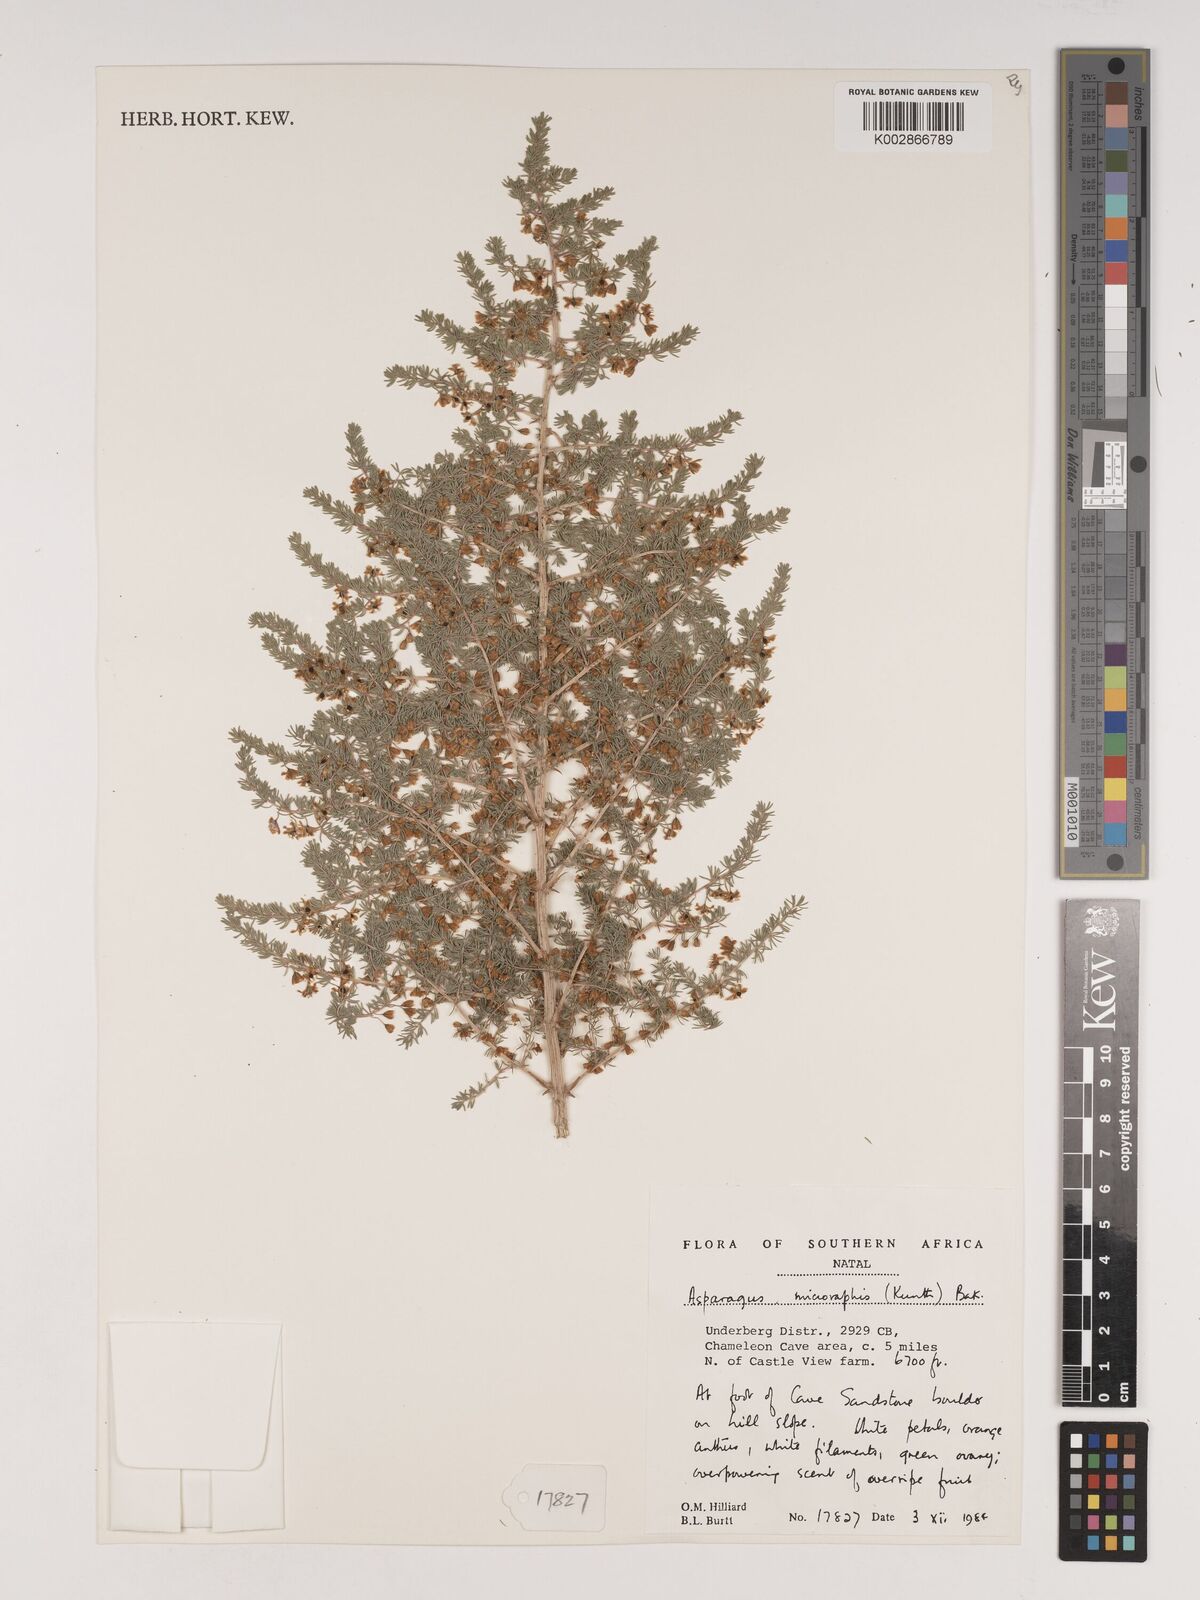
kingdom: Plantae
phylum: Tracheophyta
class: Liliopsida
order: Asparagales
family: Asparagaceae
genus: Asparagus
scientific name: Asparagus microraphis
